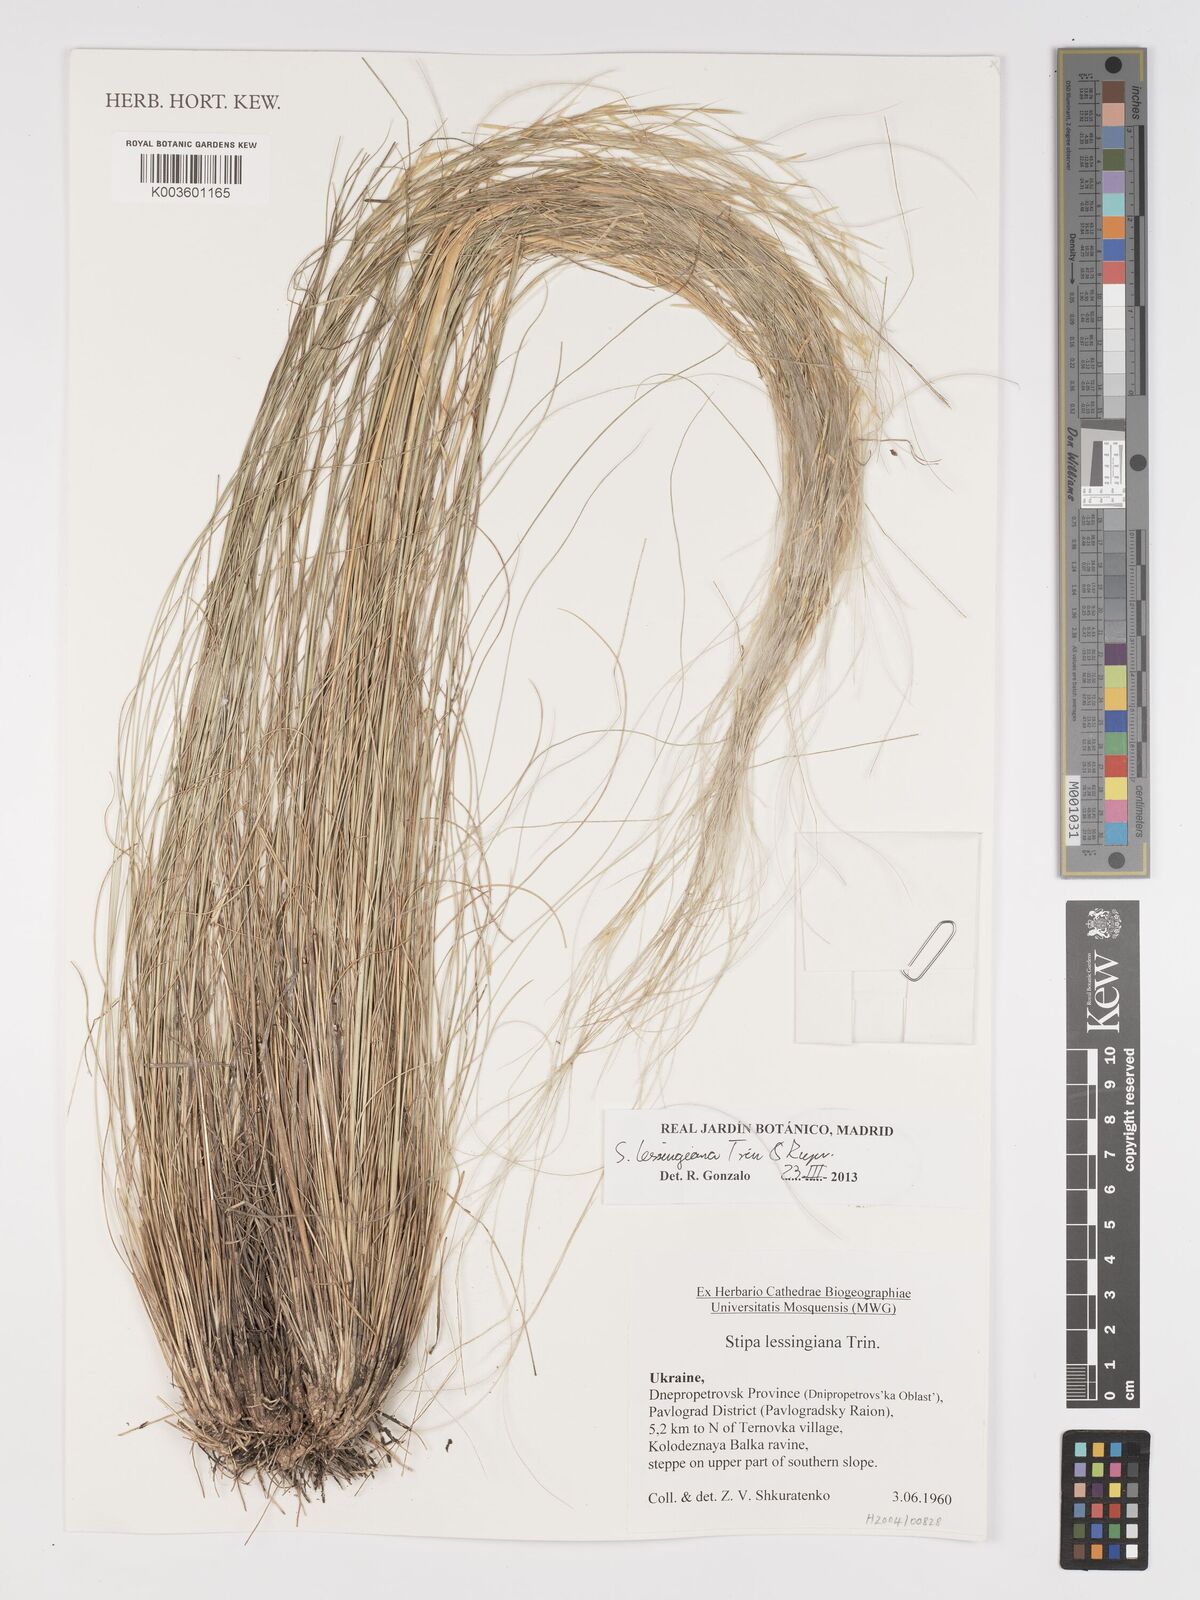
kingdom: Plantae
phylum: Tracheophyta
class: Liliopsida
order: Poales
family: Poaceae
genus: Stipa
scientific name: Stipa lessingiana
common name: Needle grass
